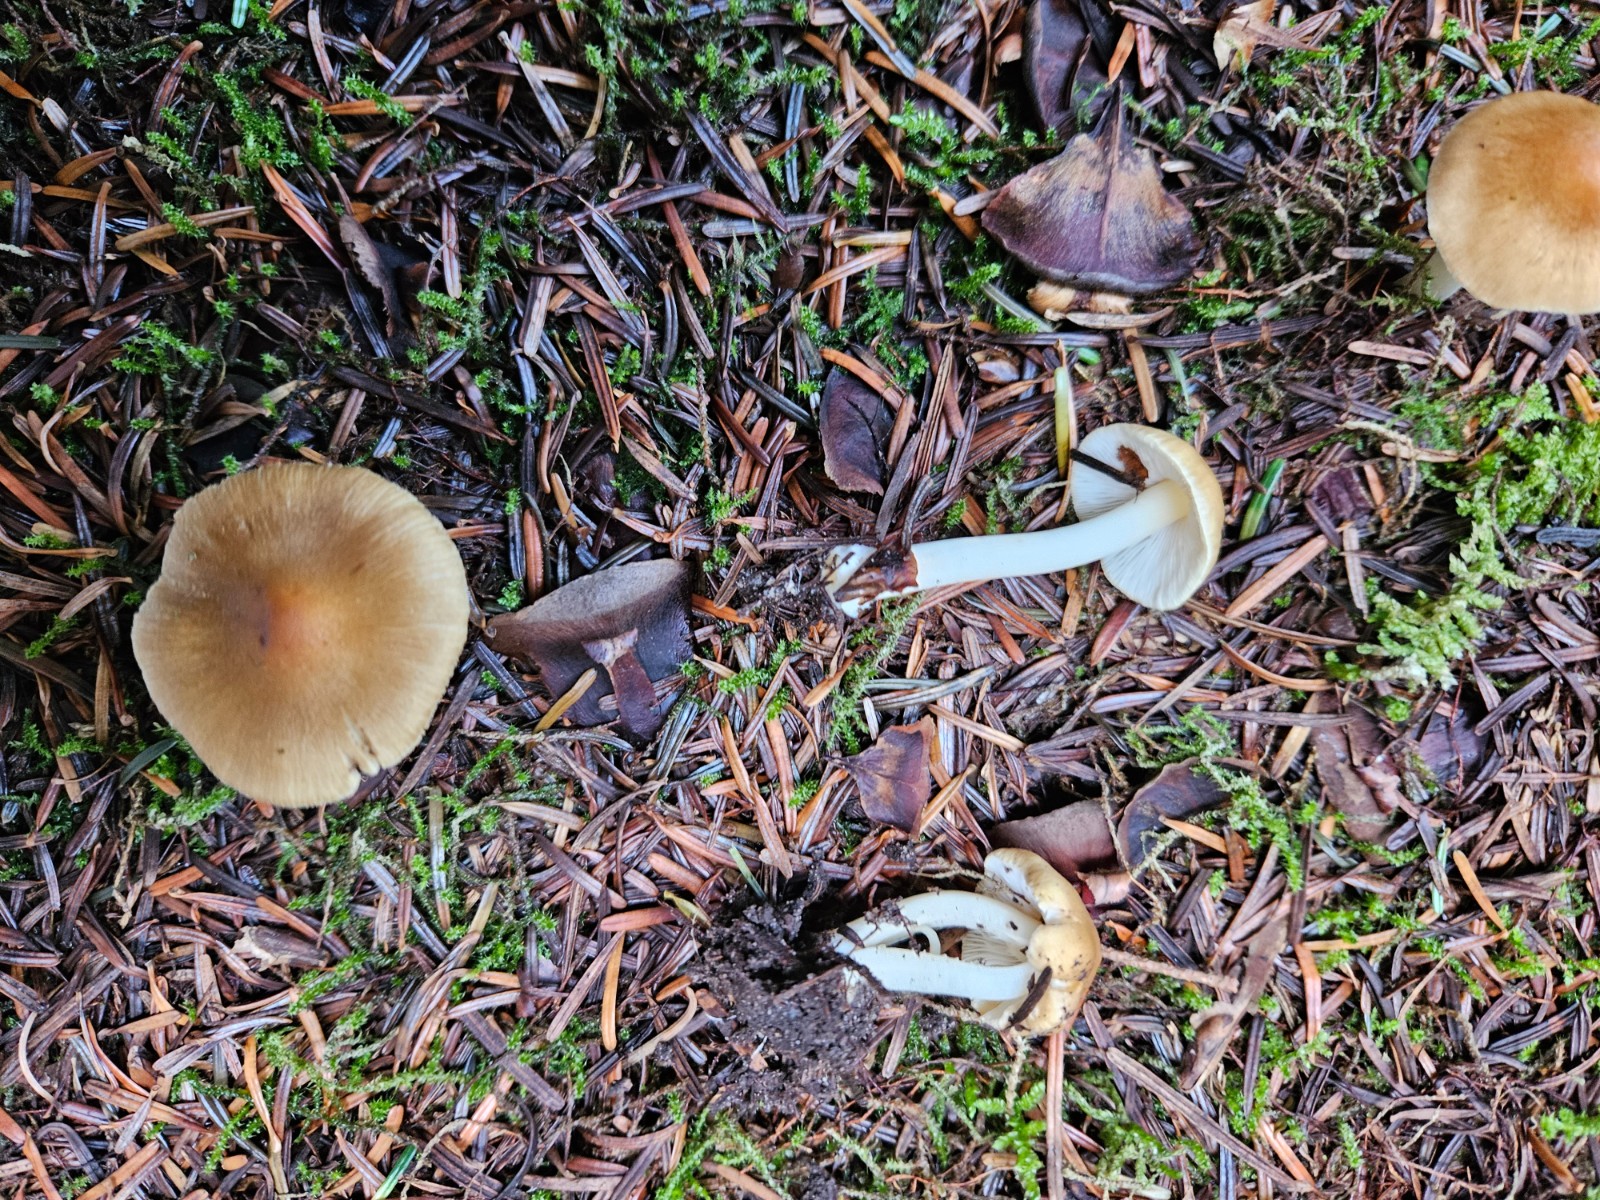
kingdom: Fungi
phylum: Basidiomycota
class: Agaricomycetes
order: Agaricales
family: Inocybaceae
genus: Inocybe
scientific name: Inocybe mixtilis
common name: randknoldet trævlhat
